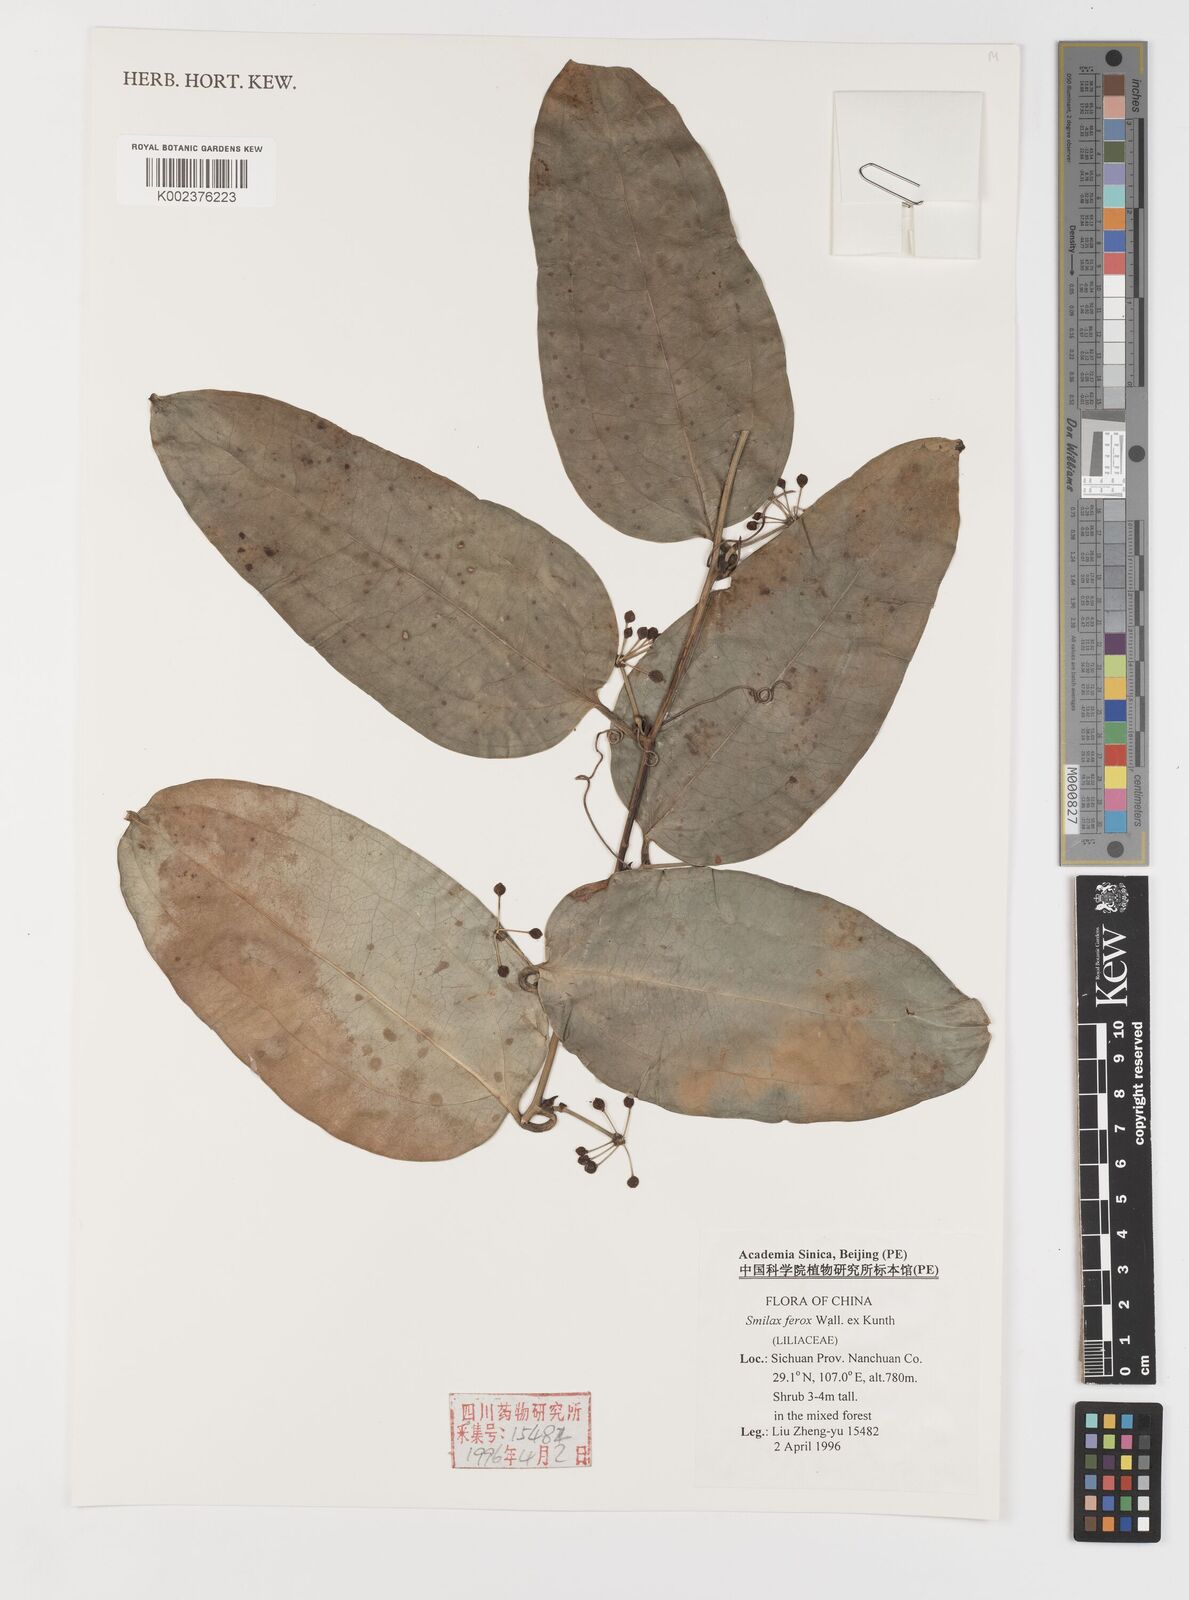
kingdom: Plantae
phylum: Tracheophyta
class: Liliopsida
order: Liliales
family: Smilacaceae
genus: Smilax
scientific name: Smilax ferox
